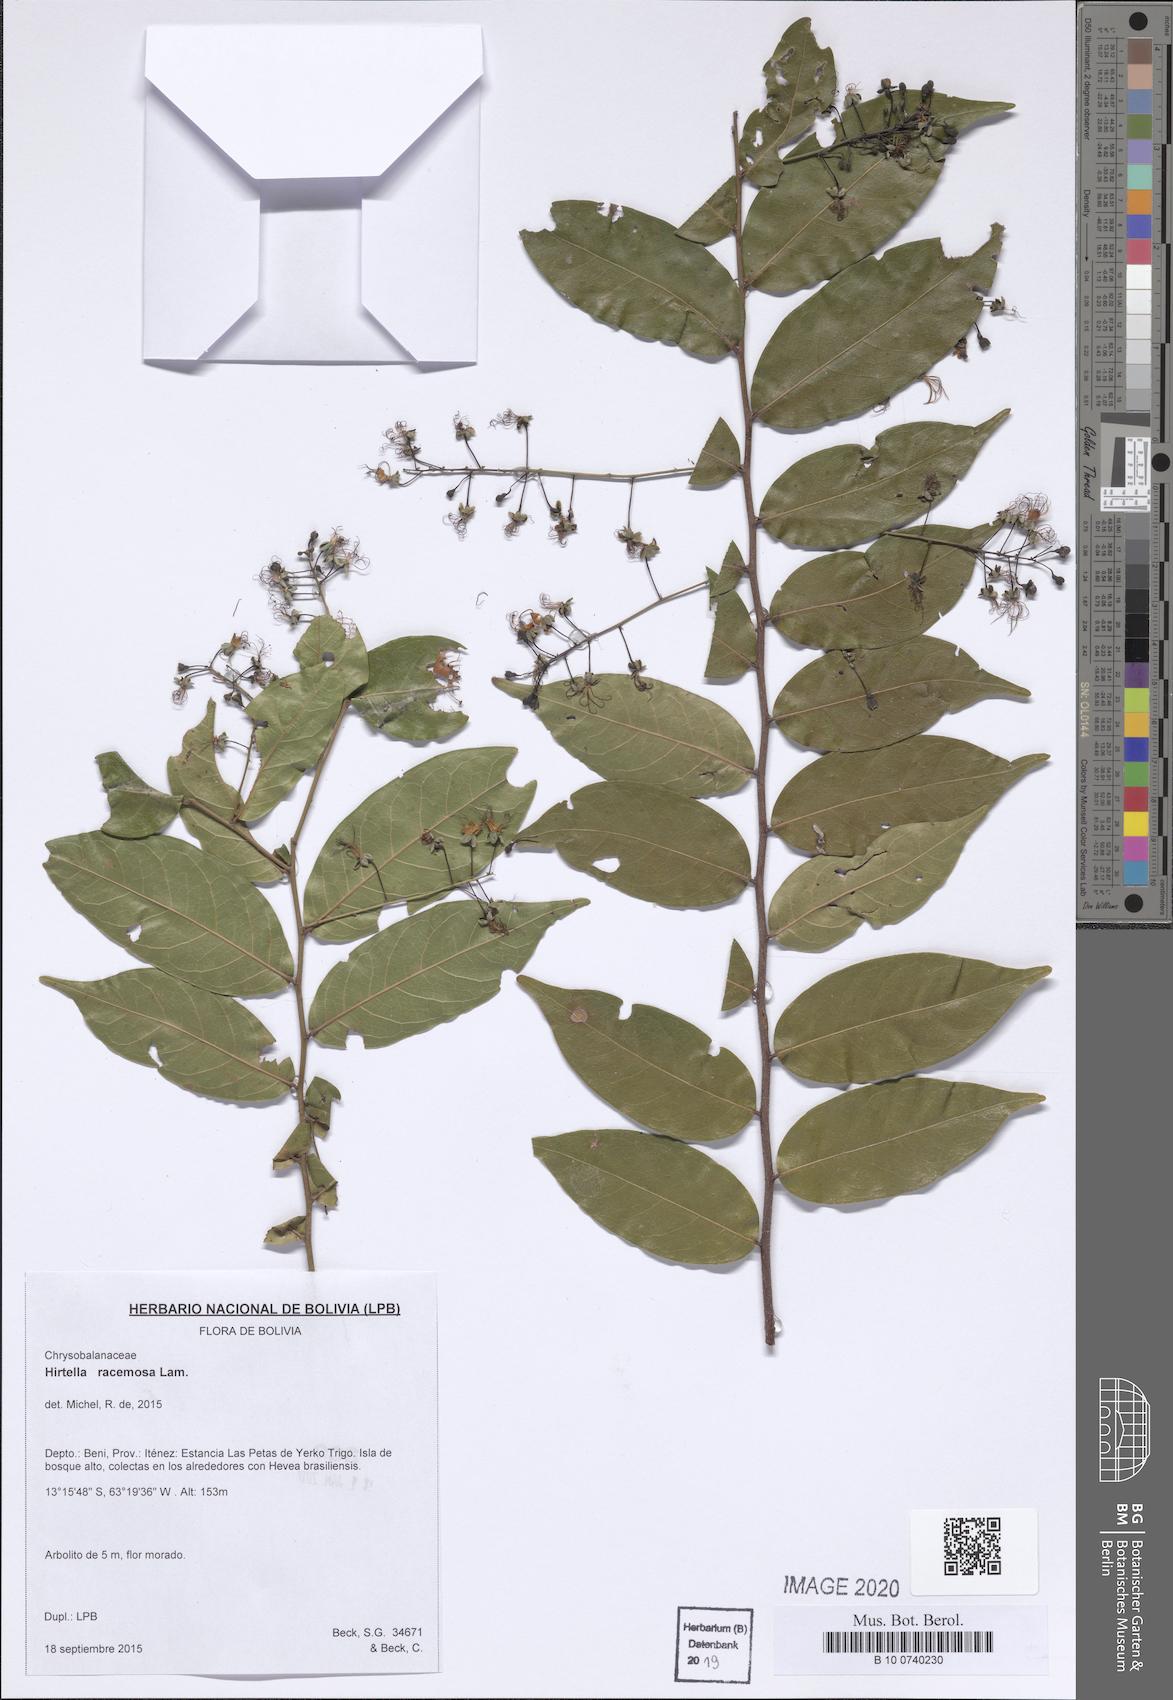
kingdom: Plantae
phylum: Tracheophyta
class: Magnoliopsida
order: Malpighiales
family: Chrysobalanaceae
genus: Hirtella
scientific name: Hirtella racemosa
